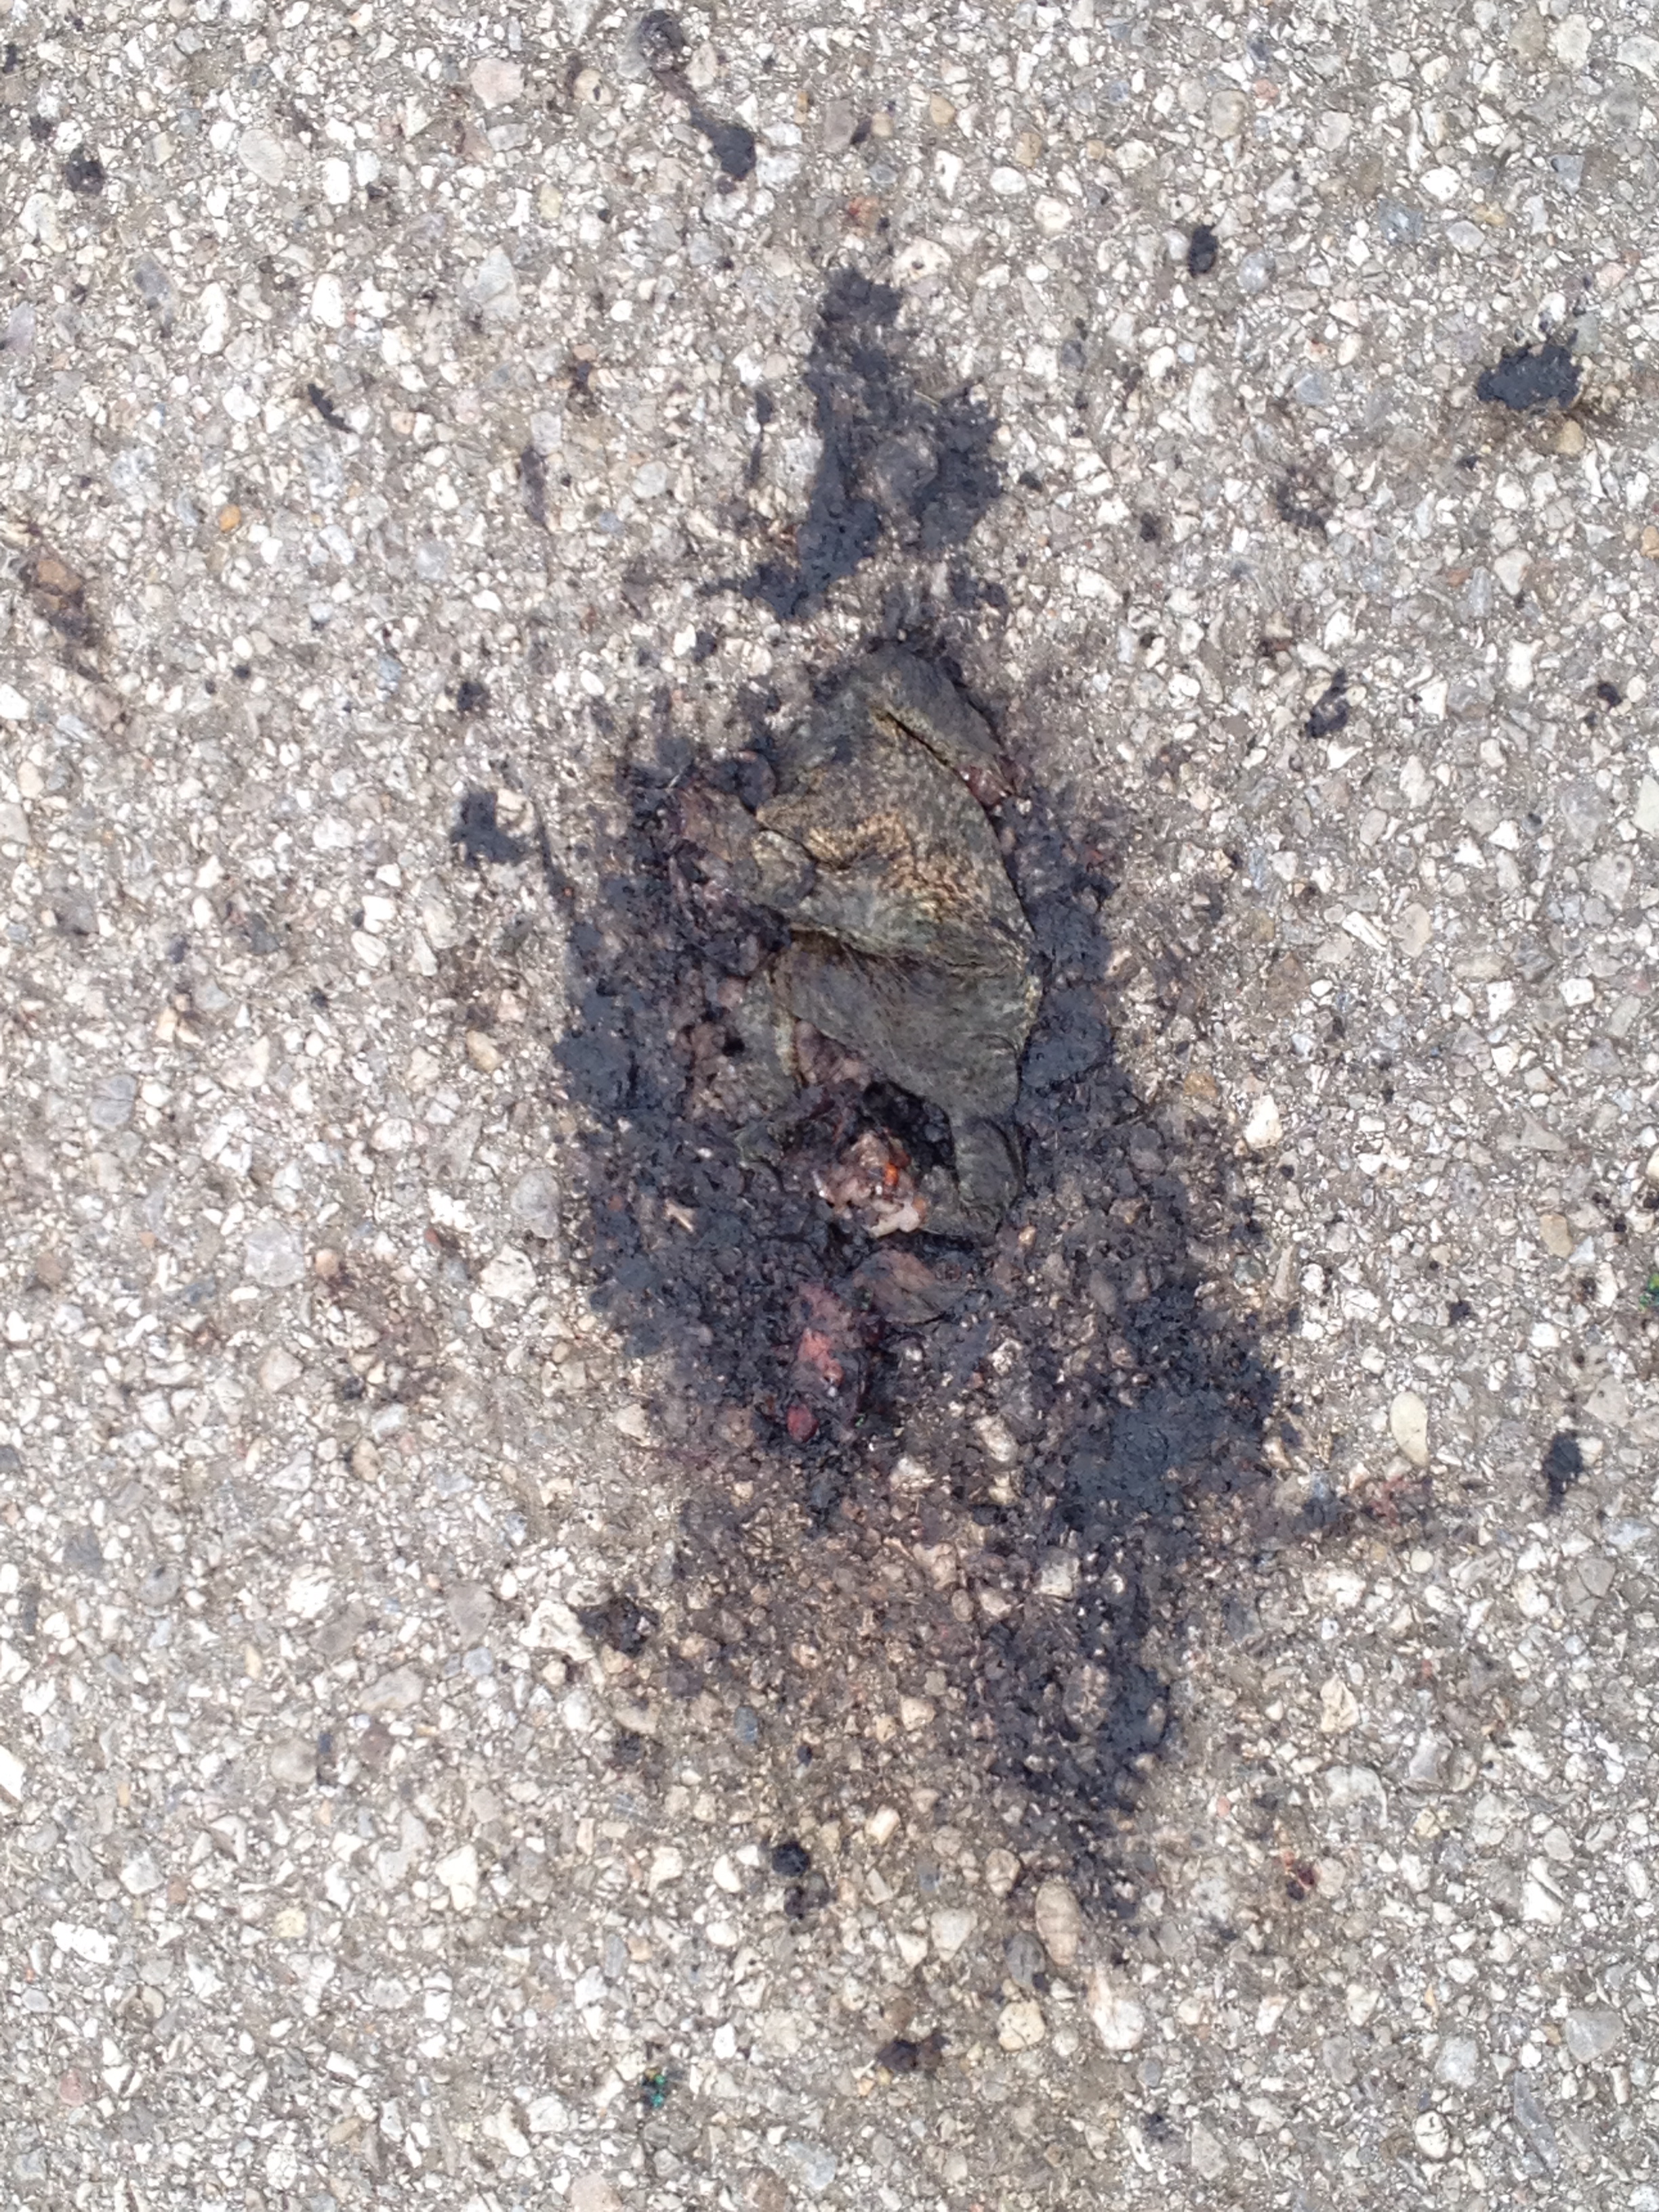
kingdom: Animalia
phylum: Chordata
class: Amphibia
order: Anura
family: Bufonidae
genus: Bufo
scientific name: Bufo bufo
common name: Common toad
